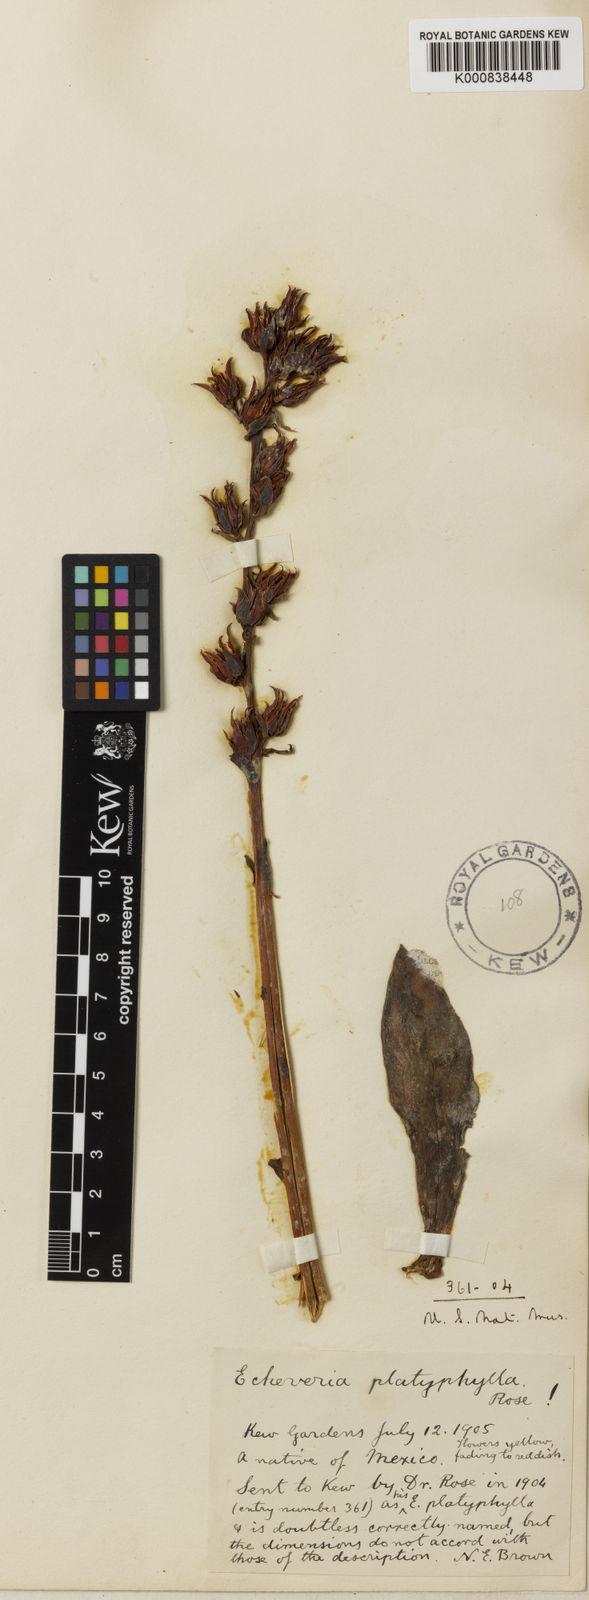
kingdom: Plantae
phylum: Tracheophyta
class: Magnoliopsida
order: Saxifragales
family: Crassulaceae
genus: Echeveria
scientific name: Echeveria platyphylla
